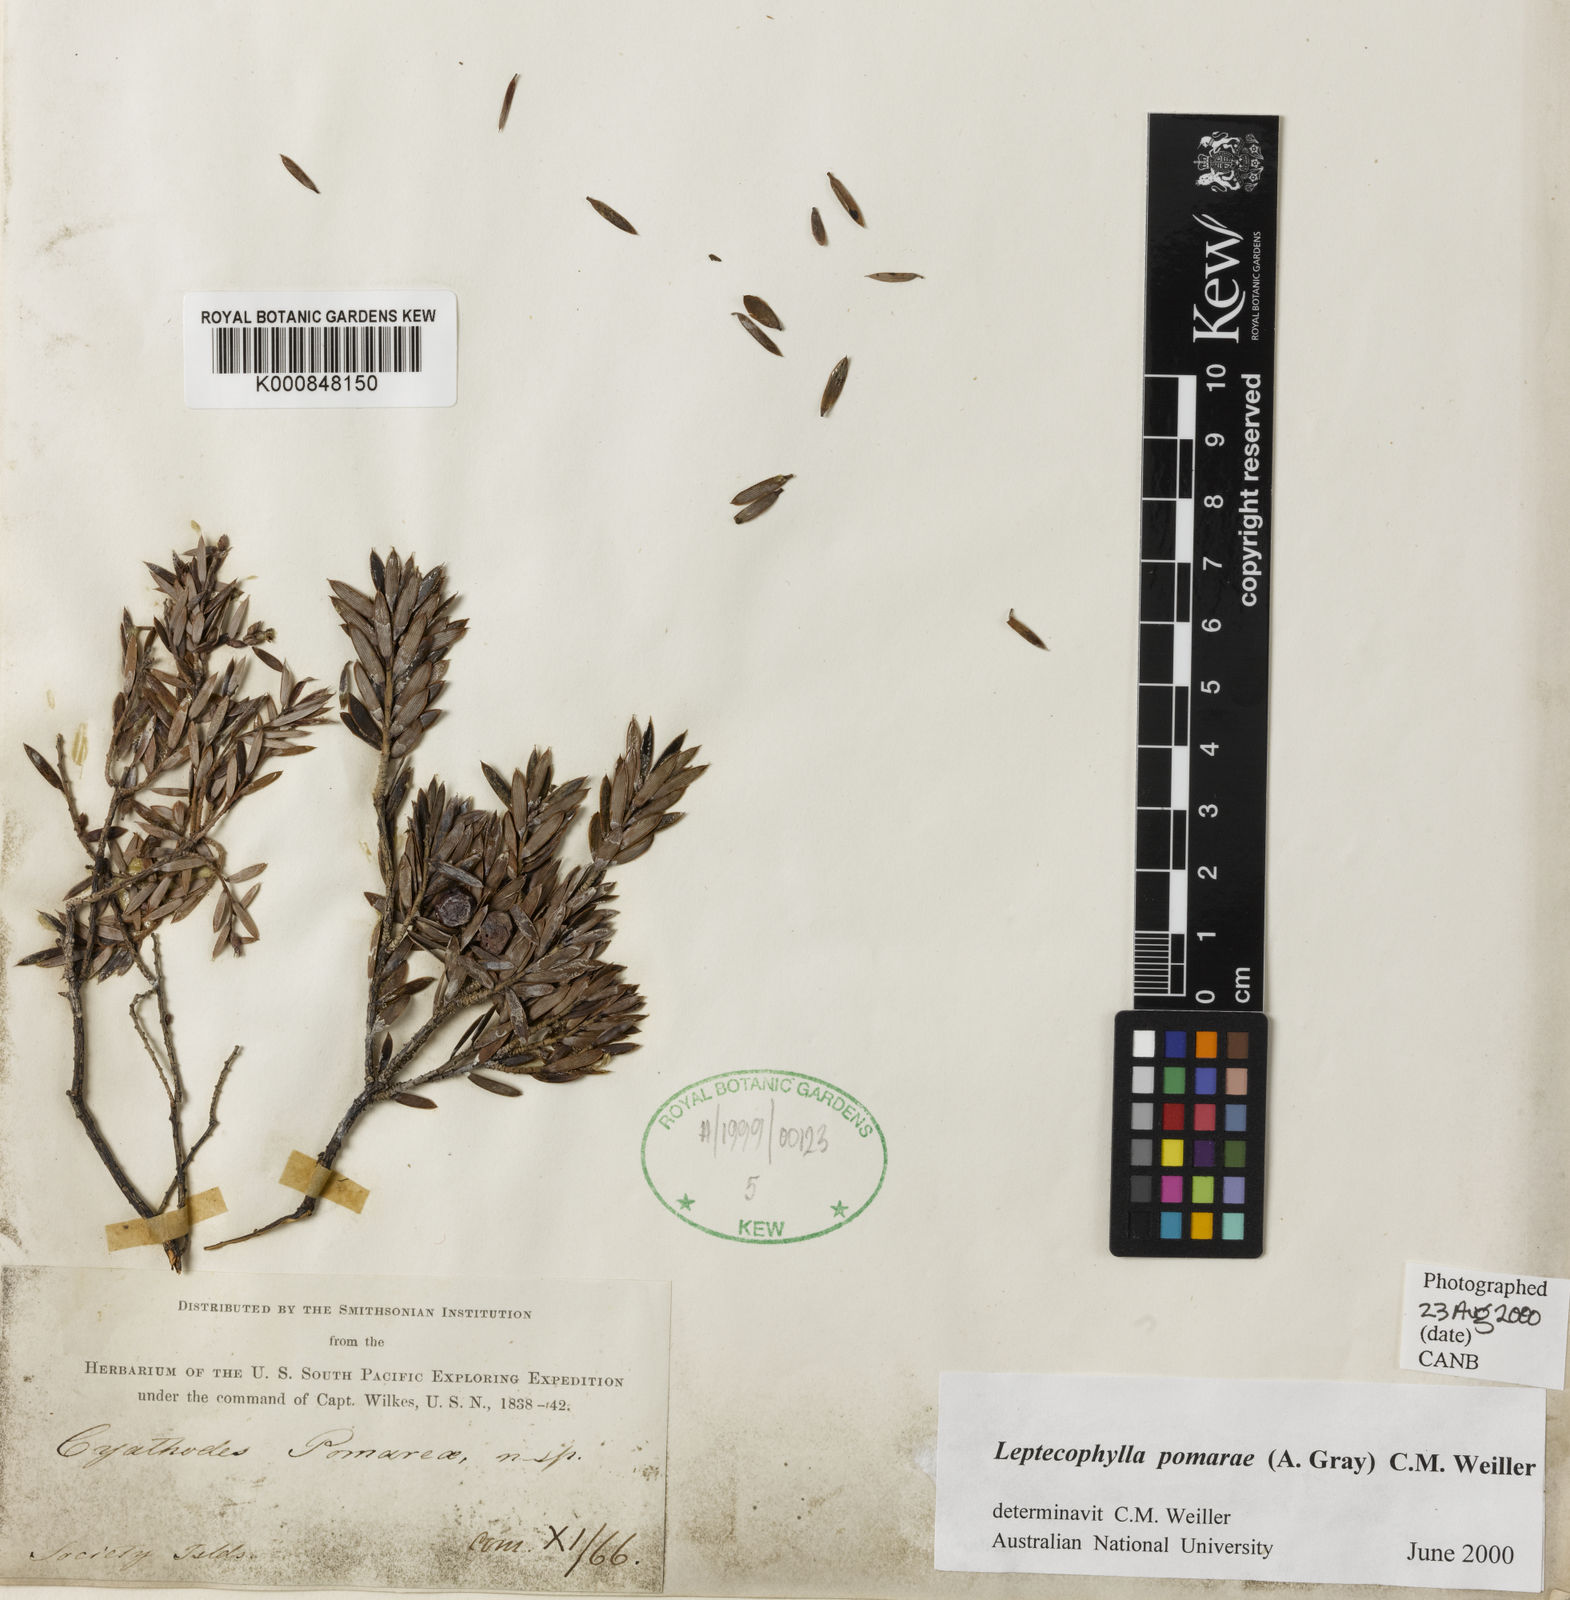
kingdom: Plantae
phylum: Tracheophyta
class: Magnoliopsida
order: Ericales
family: Ericaceae
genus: Cyathodes
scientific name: Cyathodes
